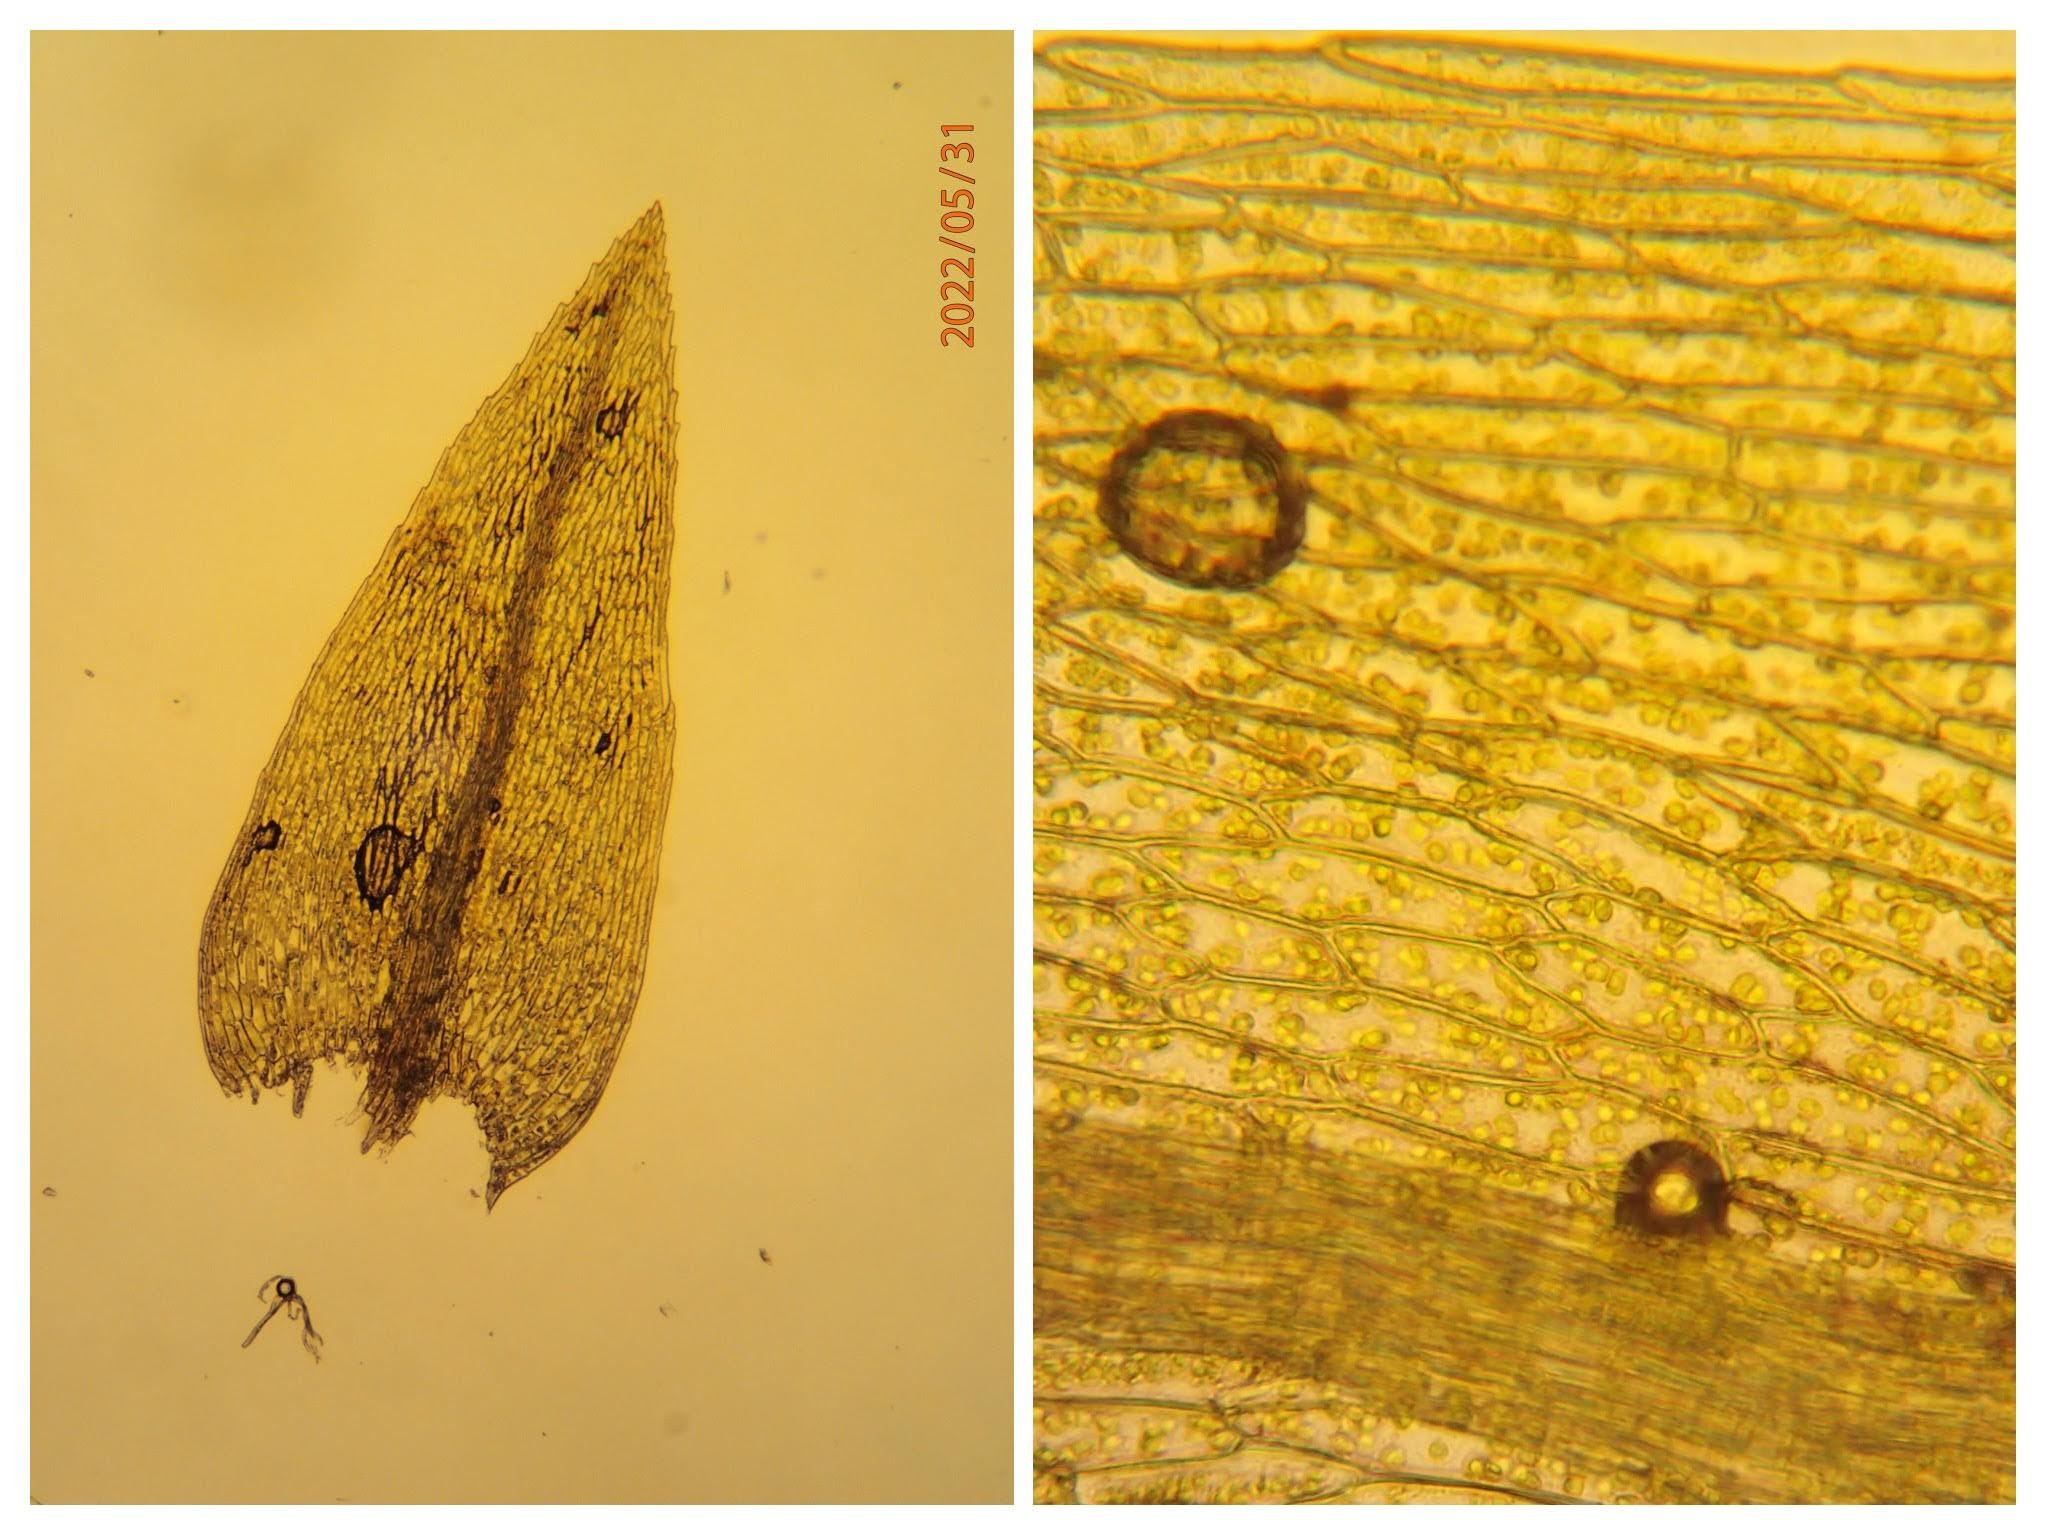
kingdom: Plantae
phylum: Bryophyta
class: Bryopsida
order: Bryales
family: Mniaceae
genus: Pohlia
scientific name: Pohlia wahlenbergii
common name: Lysegrøn voksmos
